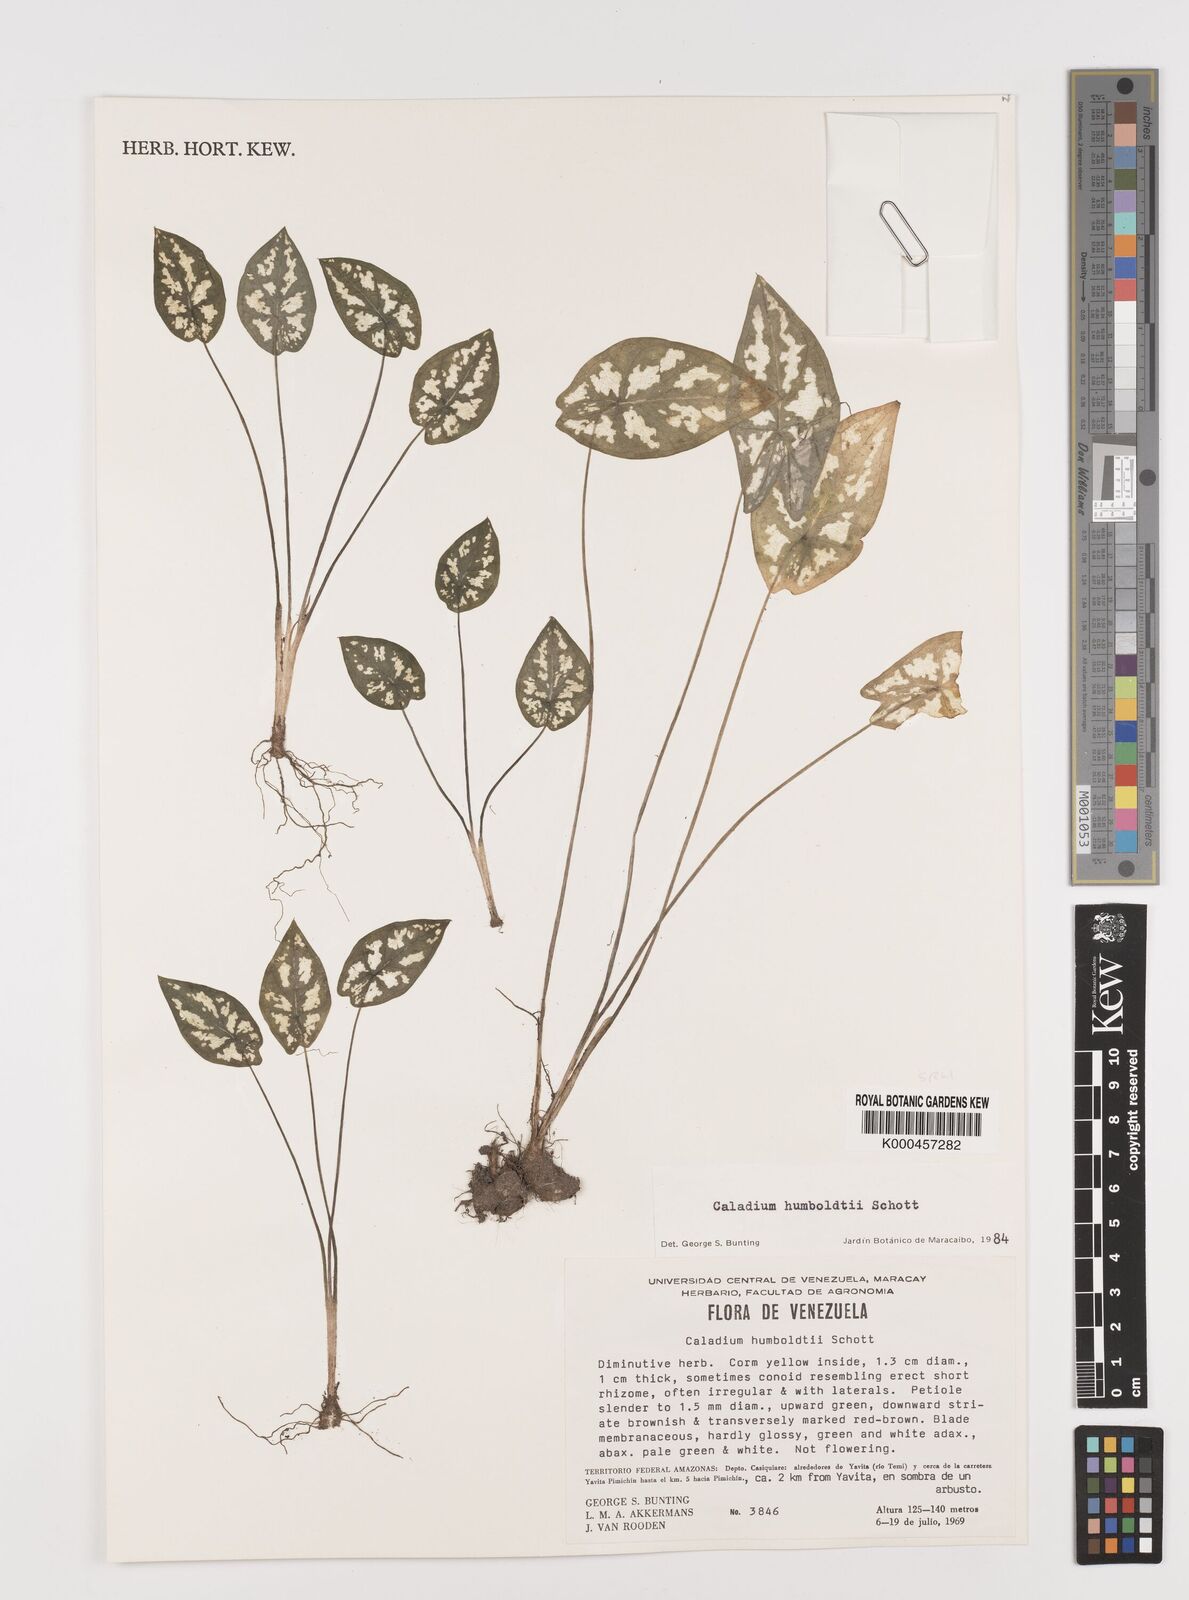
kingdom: Plantae
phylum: Tracheophyta
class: Liliopsida
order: Alismatales
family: Araceae
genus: Caladium
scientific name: Caladium humboldtii
